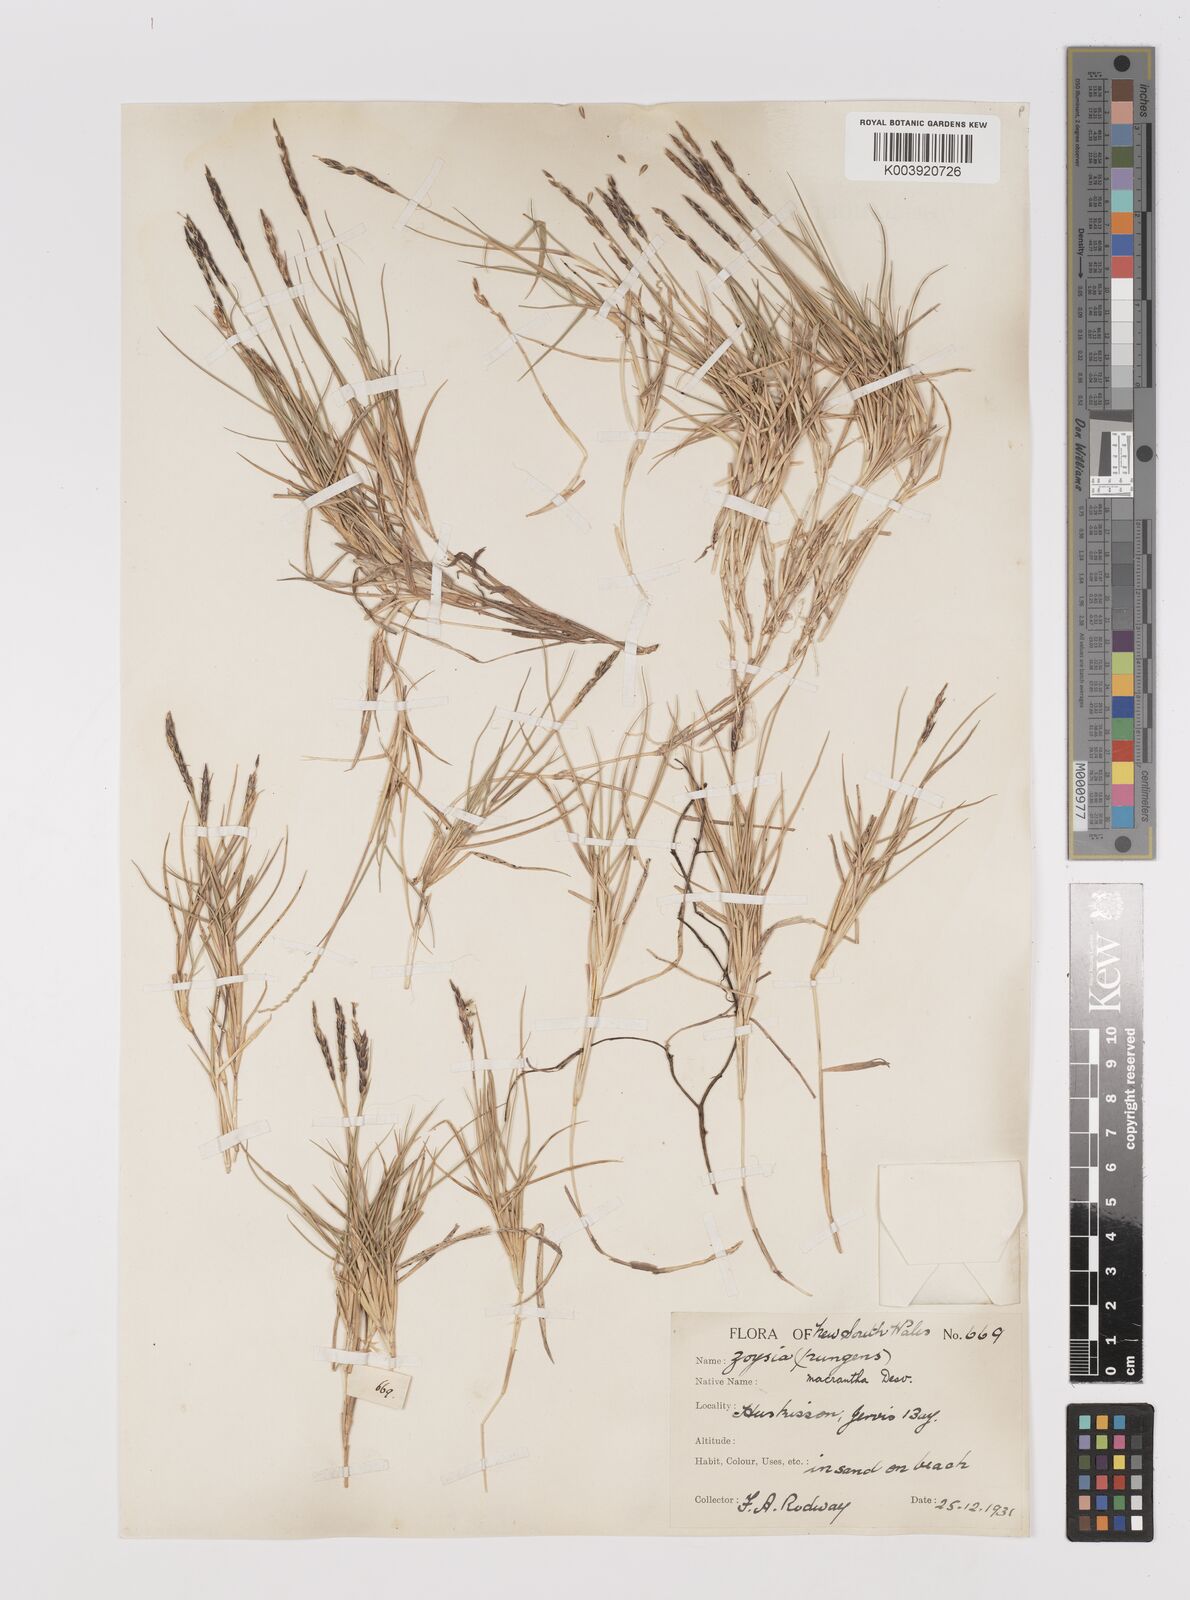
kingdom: Plantae
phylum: Tracheophyta
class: Liliopsida
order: Poales
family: Poaceae
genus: Zoysia
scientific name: Zoysia macrantha
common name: Korean lawn grass
